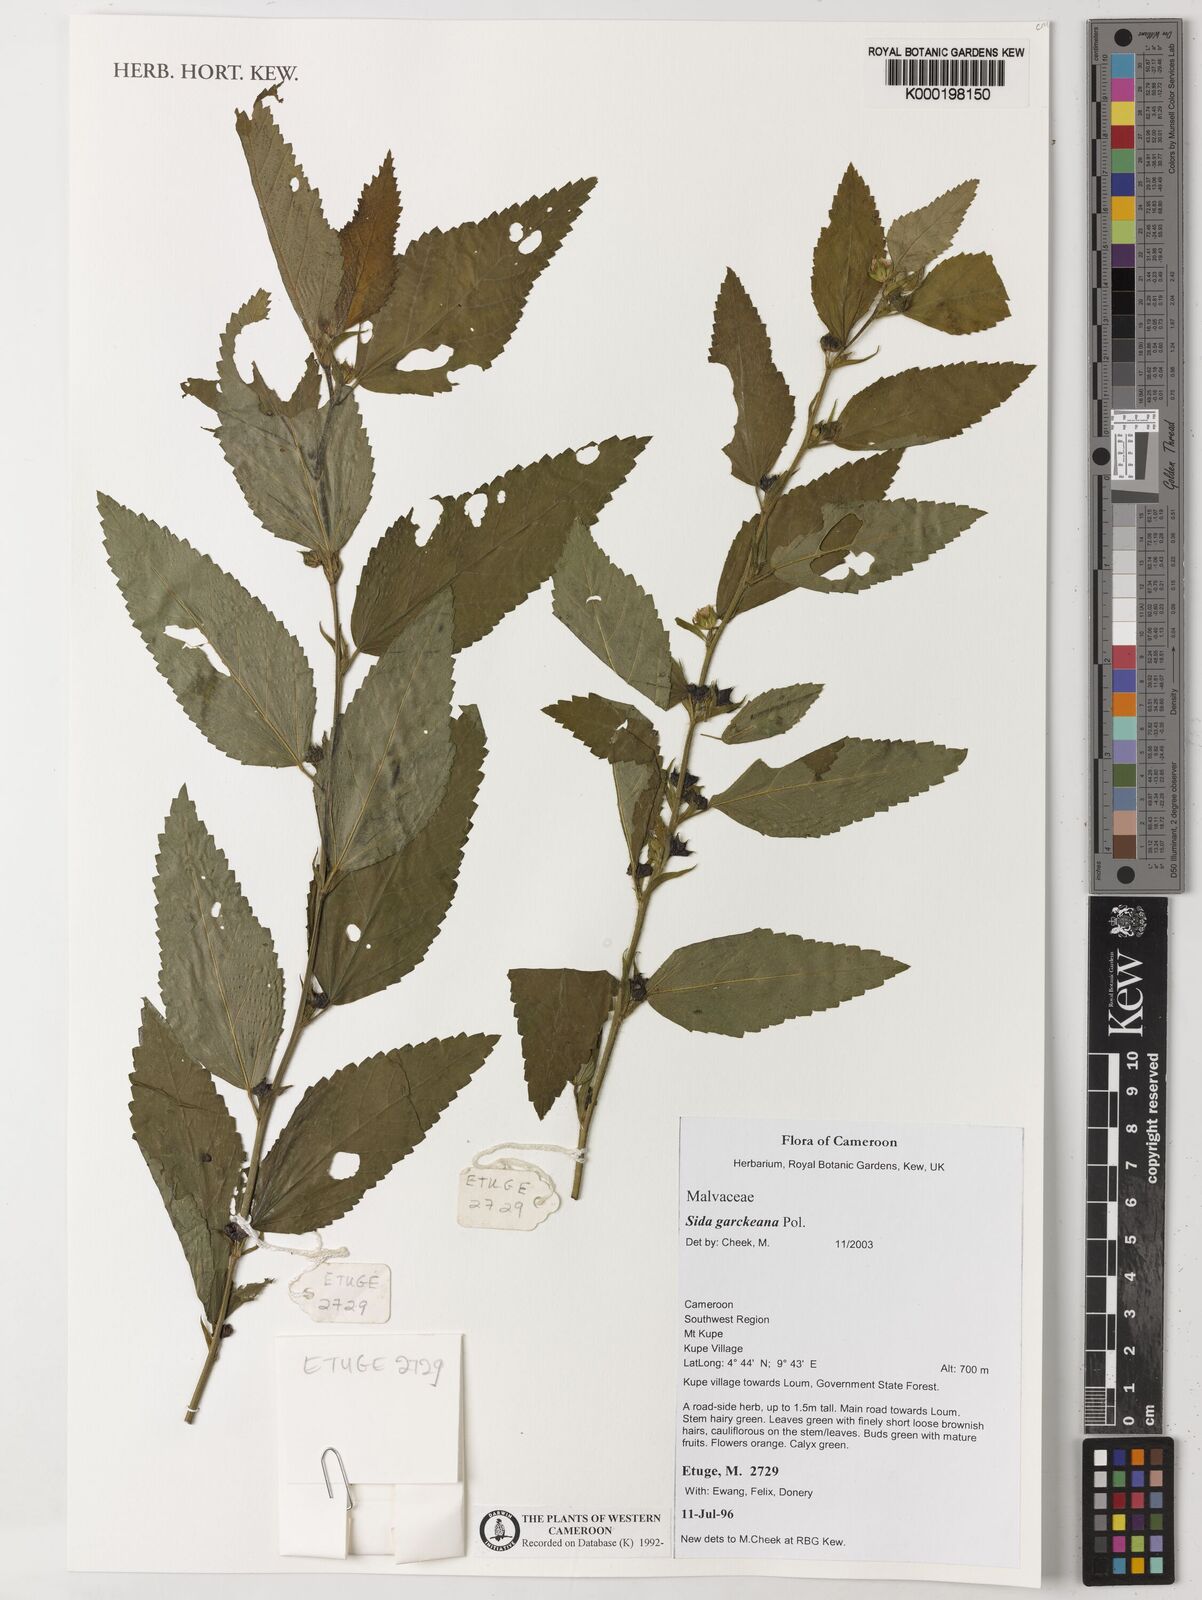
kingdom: Plantae
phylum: Tracheophyta
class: Magnoliopsida
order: Malvales
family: Malvaceae
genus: Sida
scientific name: Sida acuta
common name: Common wireweed
